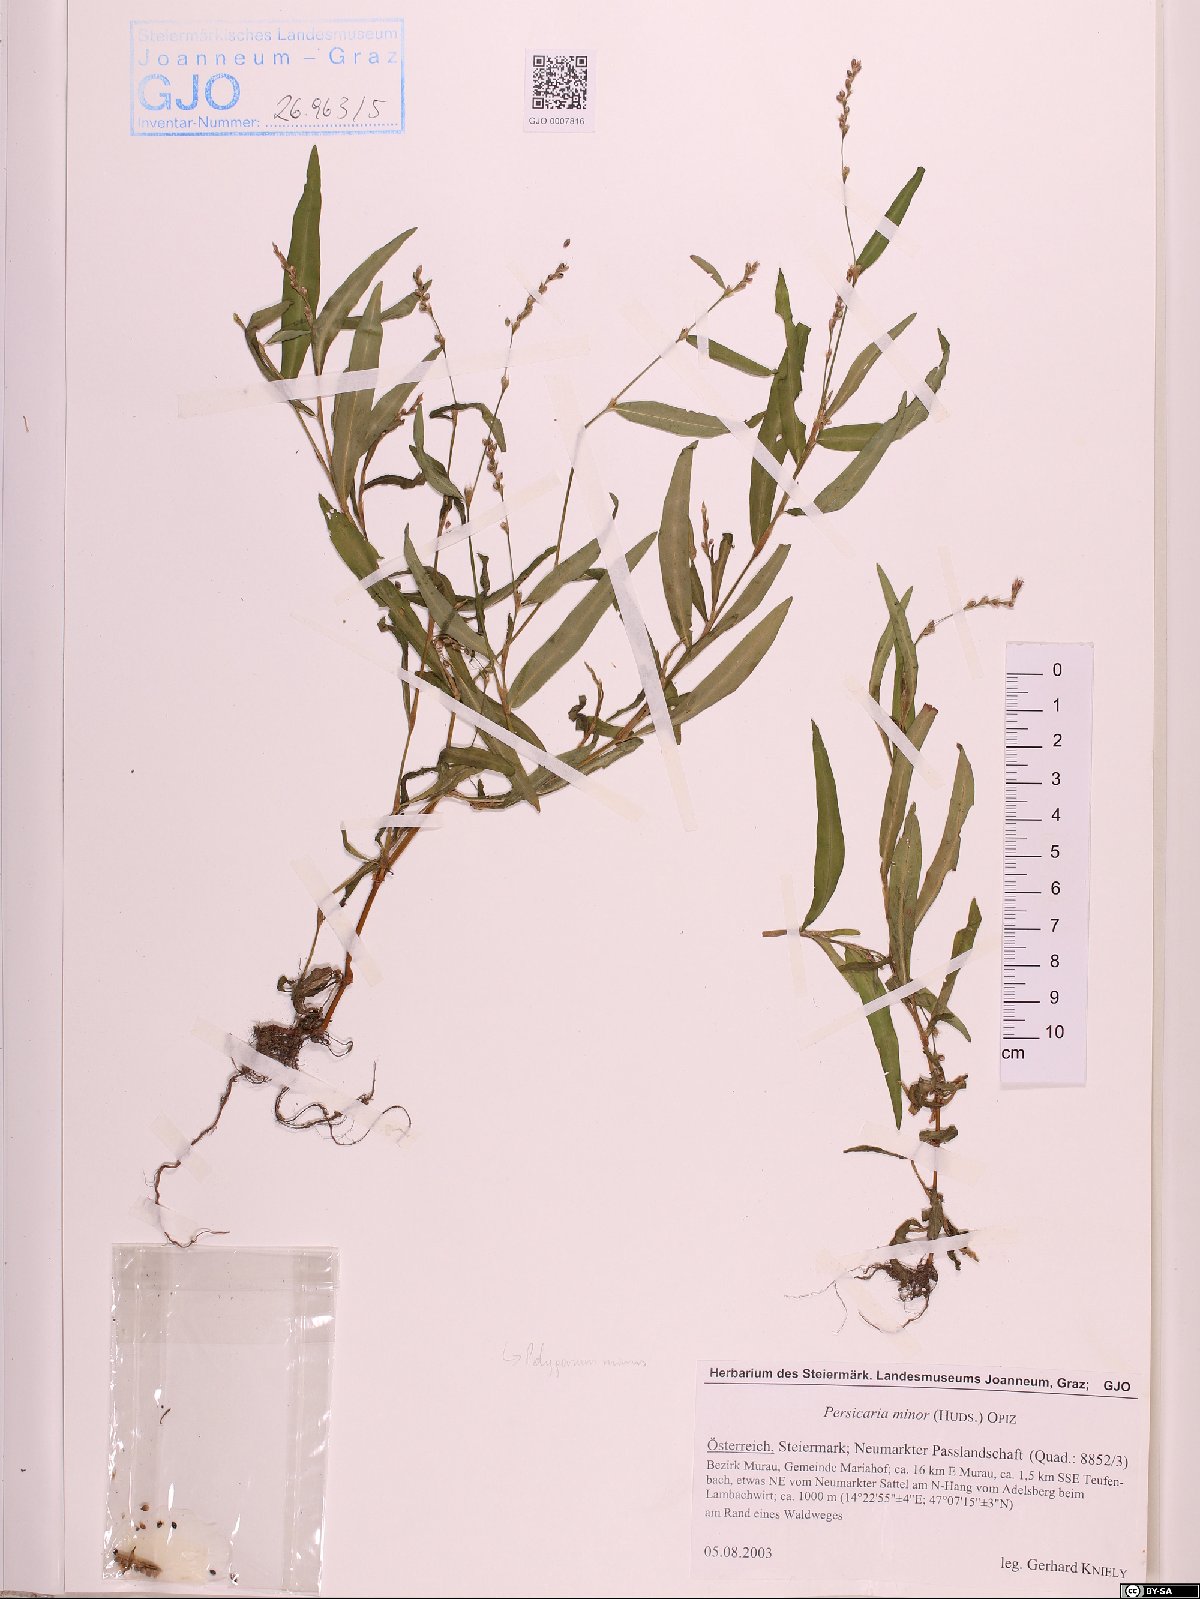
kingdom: Plantae
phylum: Tracheophyta
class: Magnoliopsida
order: Caryophyllales
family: Polygonaceae
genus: Persicaria
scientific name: Persicaria minor
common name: Small water-pepper
